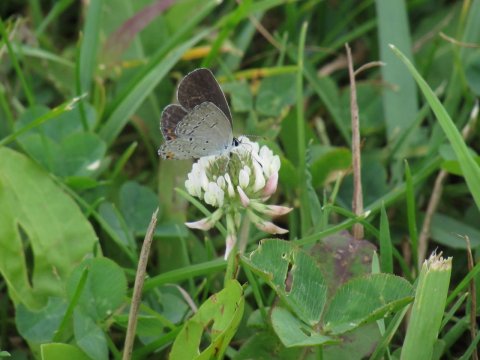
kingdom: Animalia
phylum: Arthropoda
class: Insecta
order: Lepidoptera
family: Lycaenidae
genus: Elkalyce
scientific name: Elkalyce comyntas
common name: Eastern Tailed-Blue
